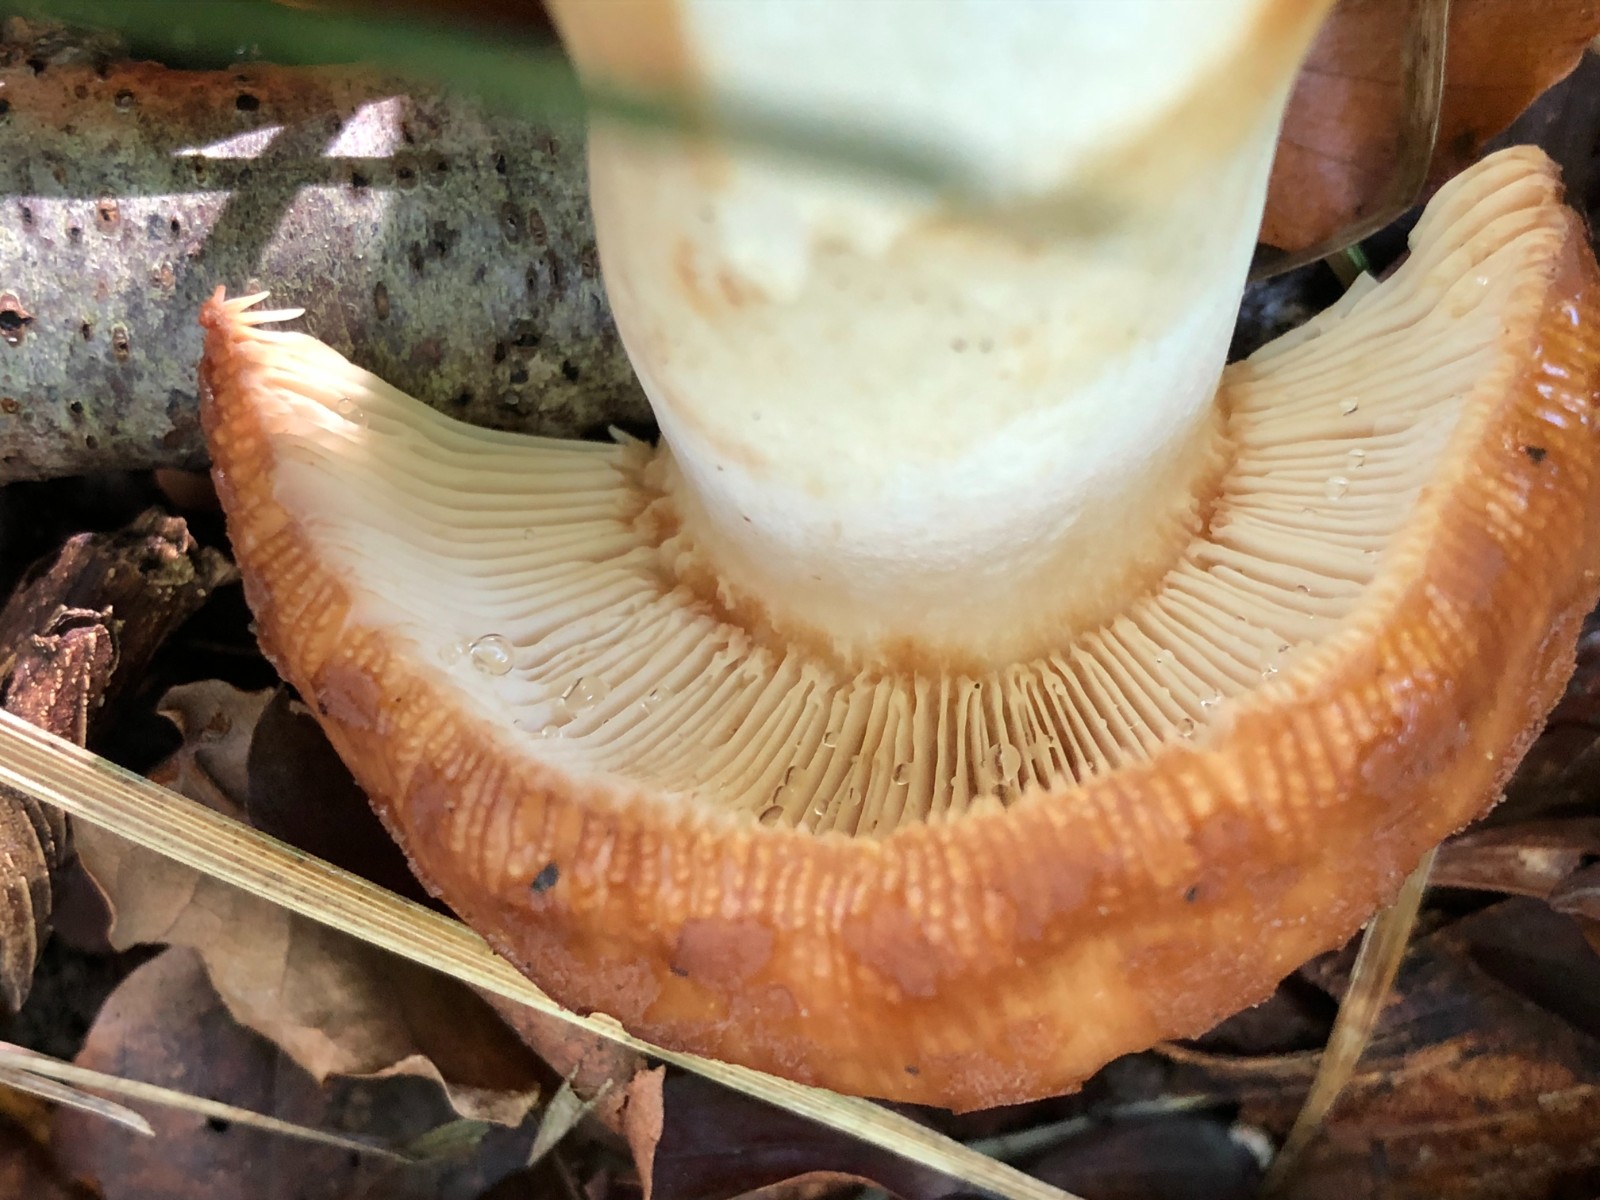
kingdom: Fungi
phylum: Basidiomycota
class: Agaricomycetes
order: Russulales
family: Russulaceae
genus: Russula
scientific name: Russula foetens
